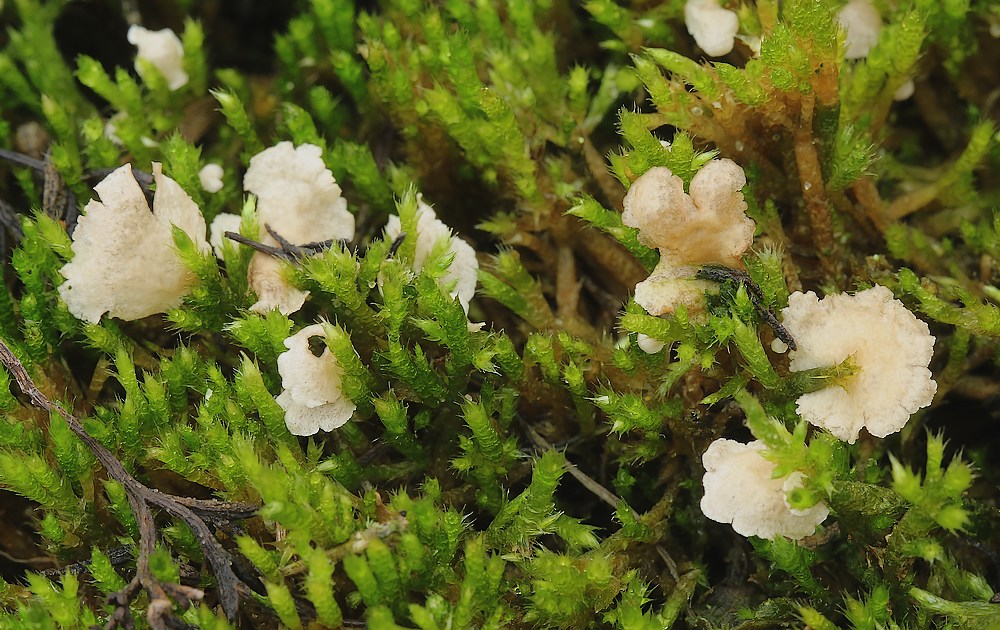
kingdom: Fungi
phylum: Basidiomycota
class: Agaricomycetes
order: Agaricales
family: Hygrophoraceae
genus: Arrhenia
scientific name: Arrhenia retiruga
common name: lille fontænehat
